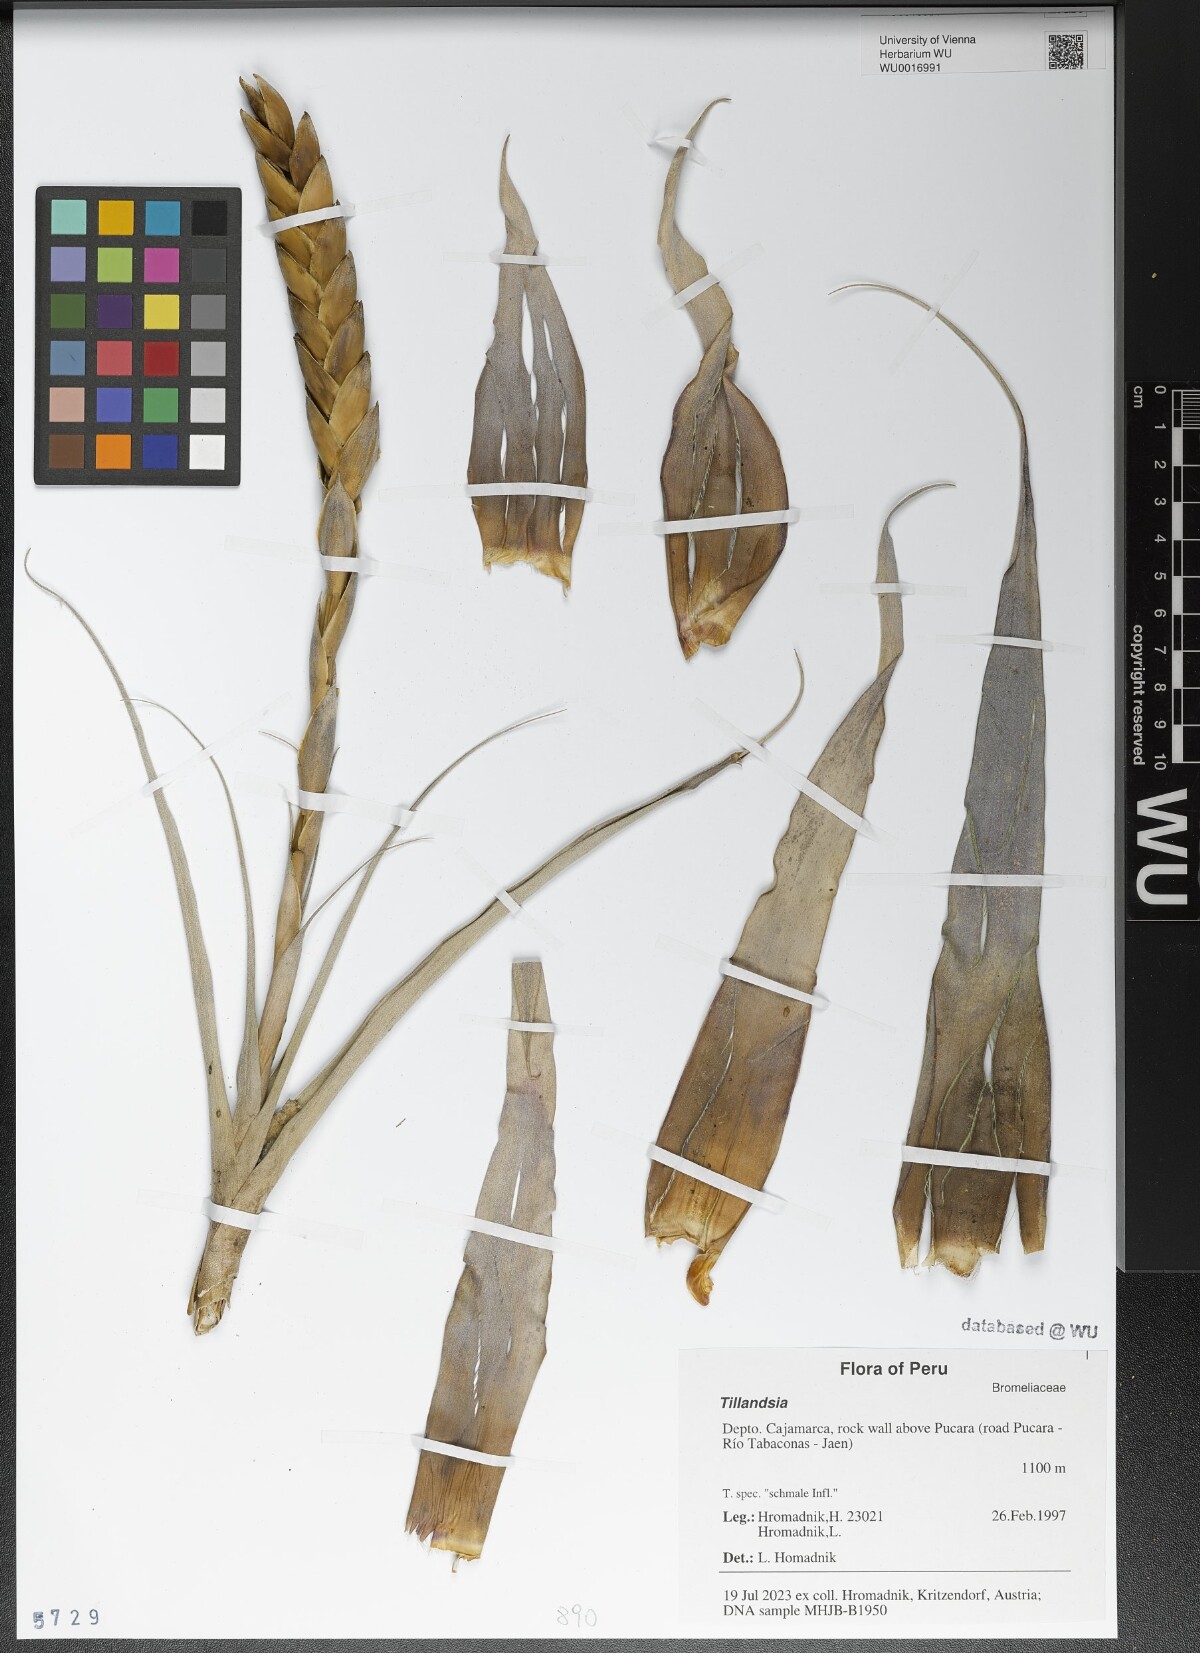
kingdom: Plantae
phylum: Tracheophyta
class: Liliopsida
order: Poales
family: Bromeliaceae
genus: Tillandsia
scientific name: Tillandsia
